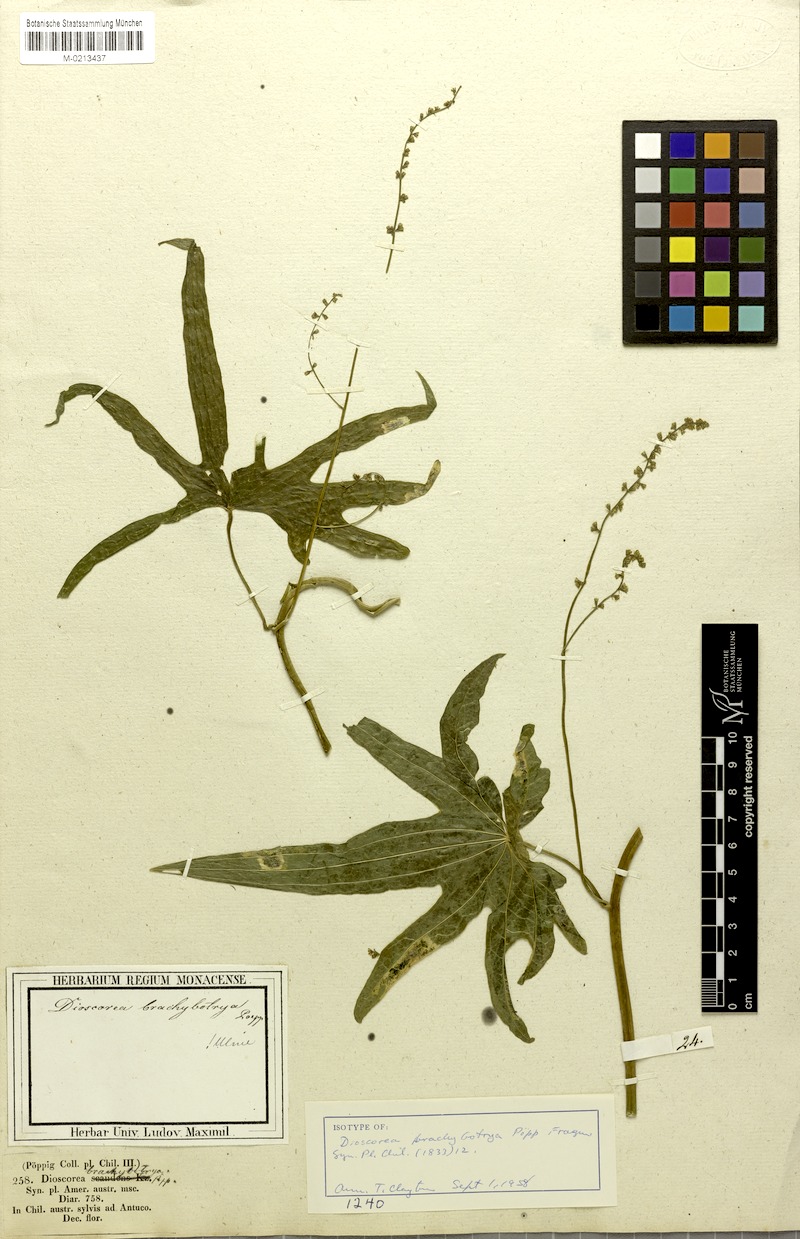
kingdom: Plantae
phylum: Tracheophyta
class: Liliopsida
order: Dioscoreales
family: Dioscoreaceae
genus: Dioscorea
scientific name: Dioscorea brachybotrya
